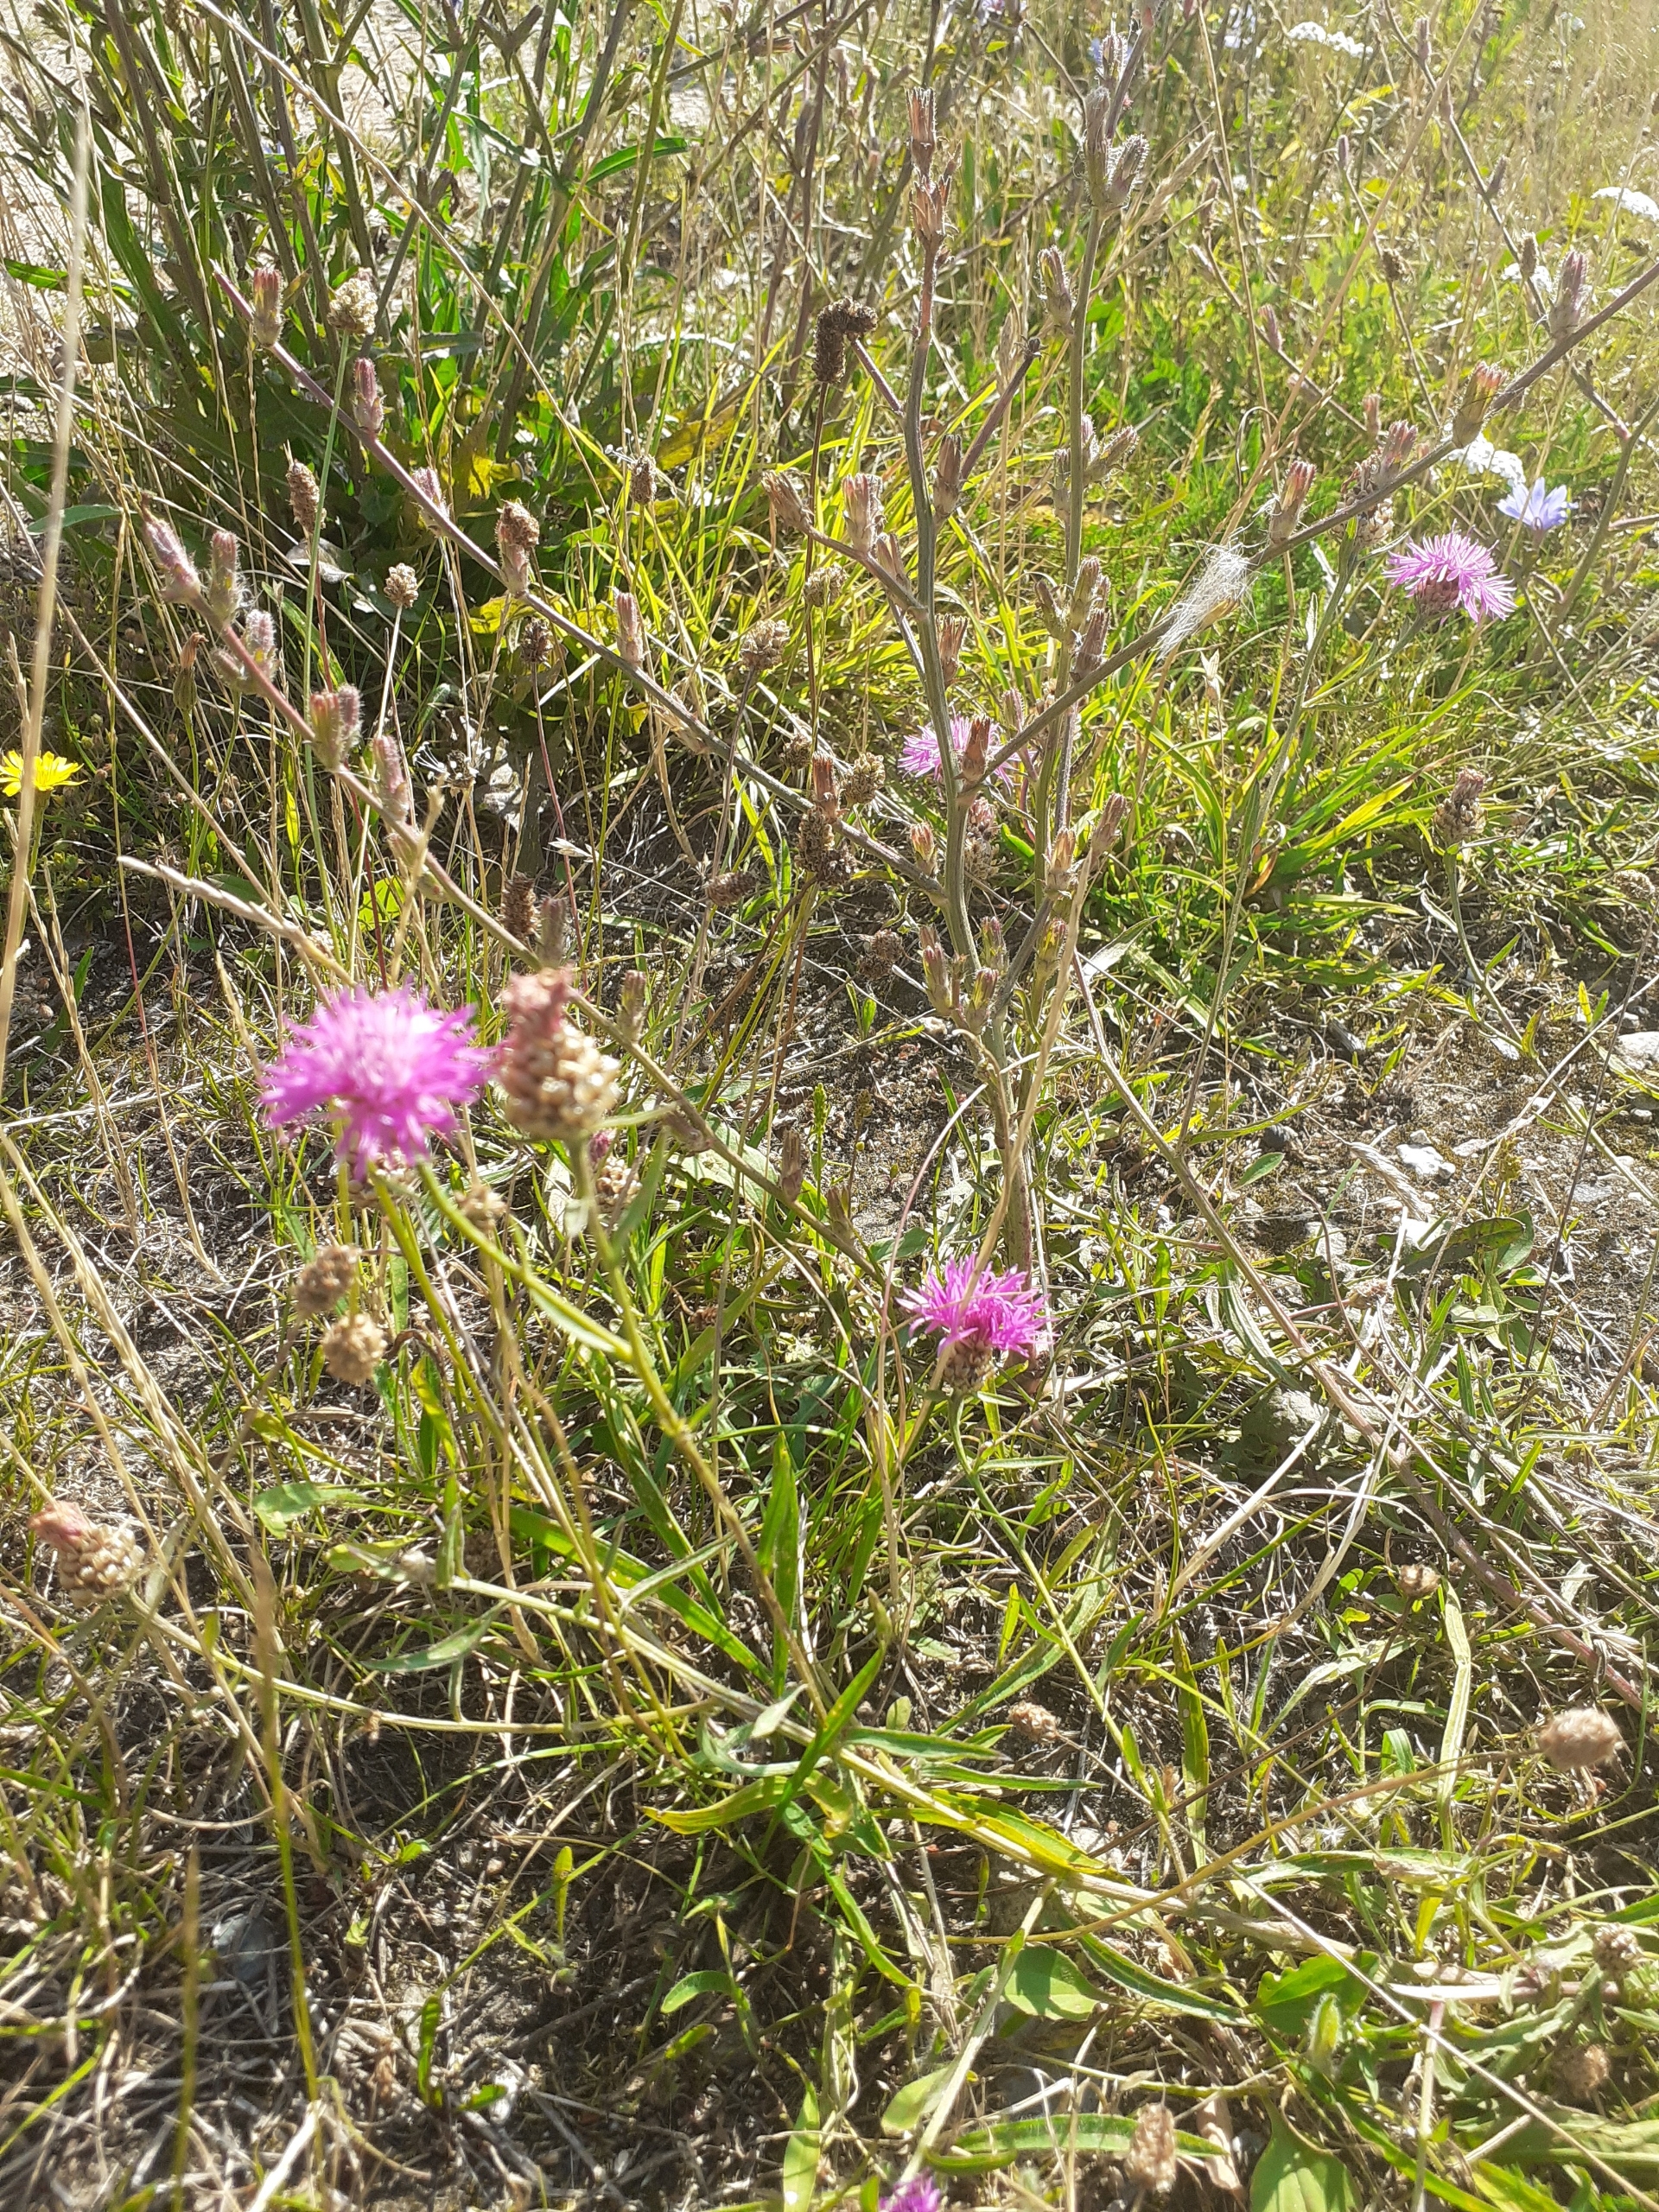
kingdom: Plantae
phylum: Tracheophyta
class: Magnoliopsida
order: Asterales
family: Asteraceae
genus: Centaurea
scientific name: Centaurea jacea
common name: Almindelig knopurt
